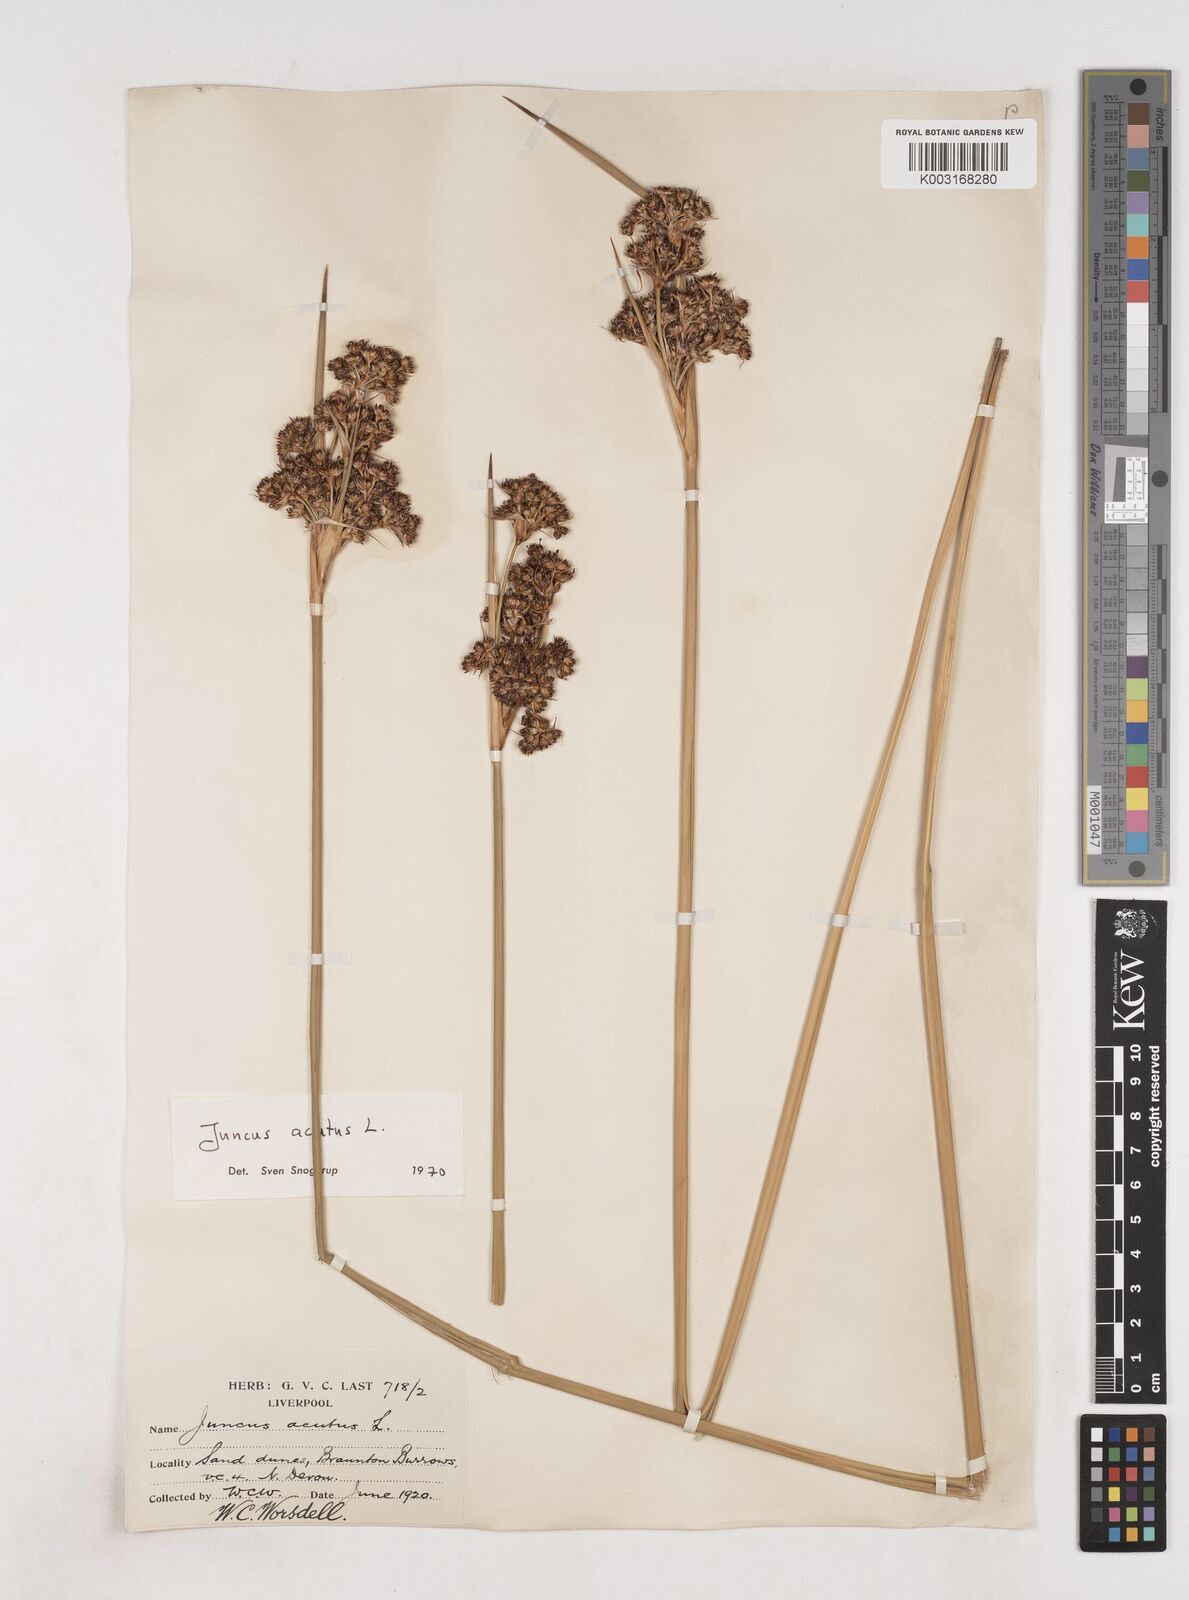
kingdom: Plantae
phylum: Tracheophyta
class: Liliopsida
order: Poales
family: Juncaceae
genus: Juncus
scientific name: Juncus acutus
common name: Sharp rush
